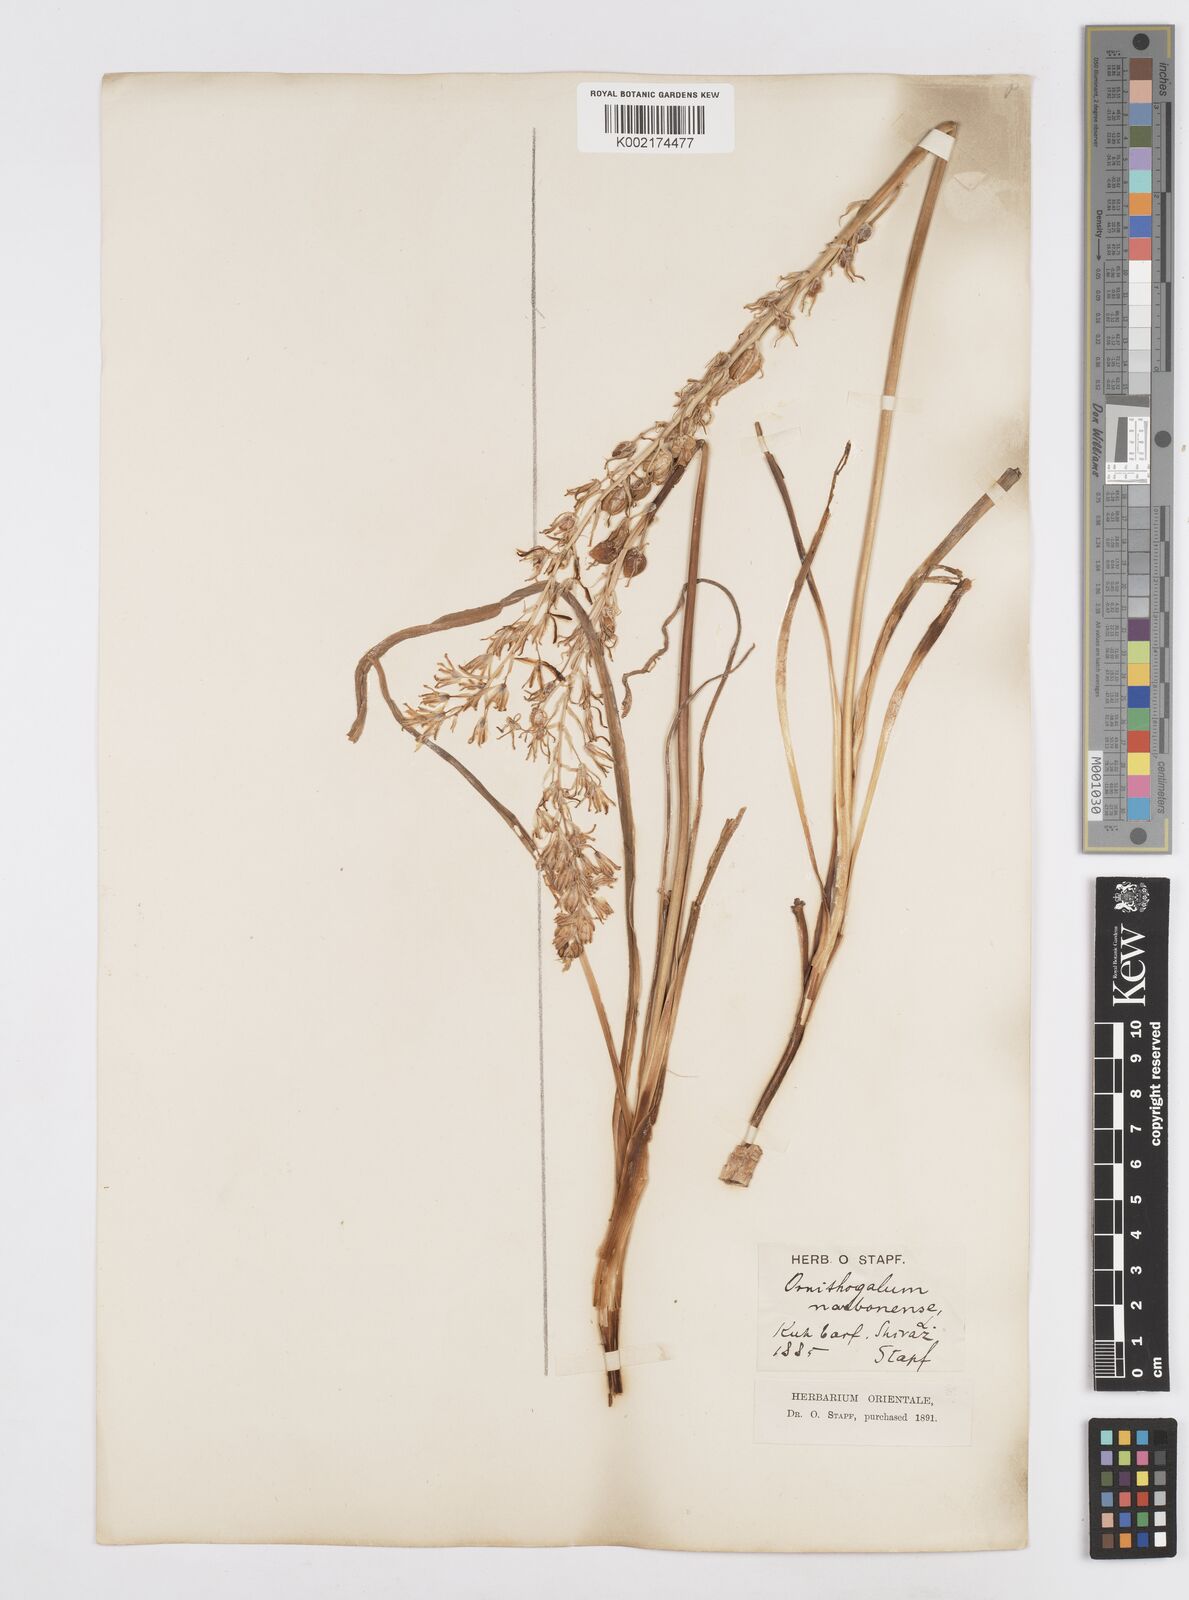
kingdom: Plantae
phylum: Tracheophyta
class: Liliopsida
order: Asparagales
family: Asparagaceae
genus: Ornithogalum
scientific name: Ornithogalum narbonense
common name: Bath-asparagus
